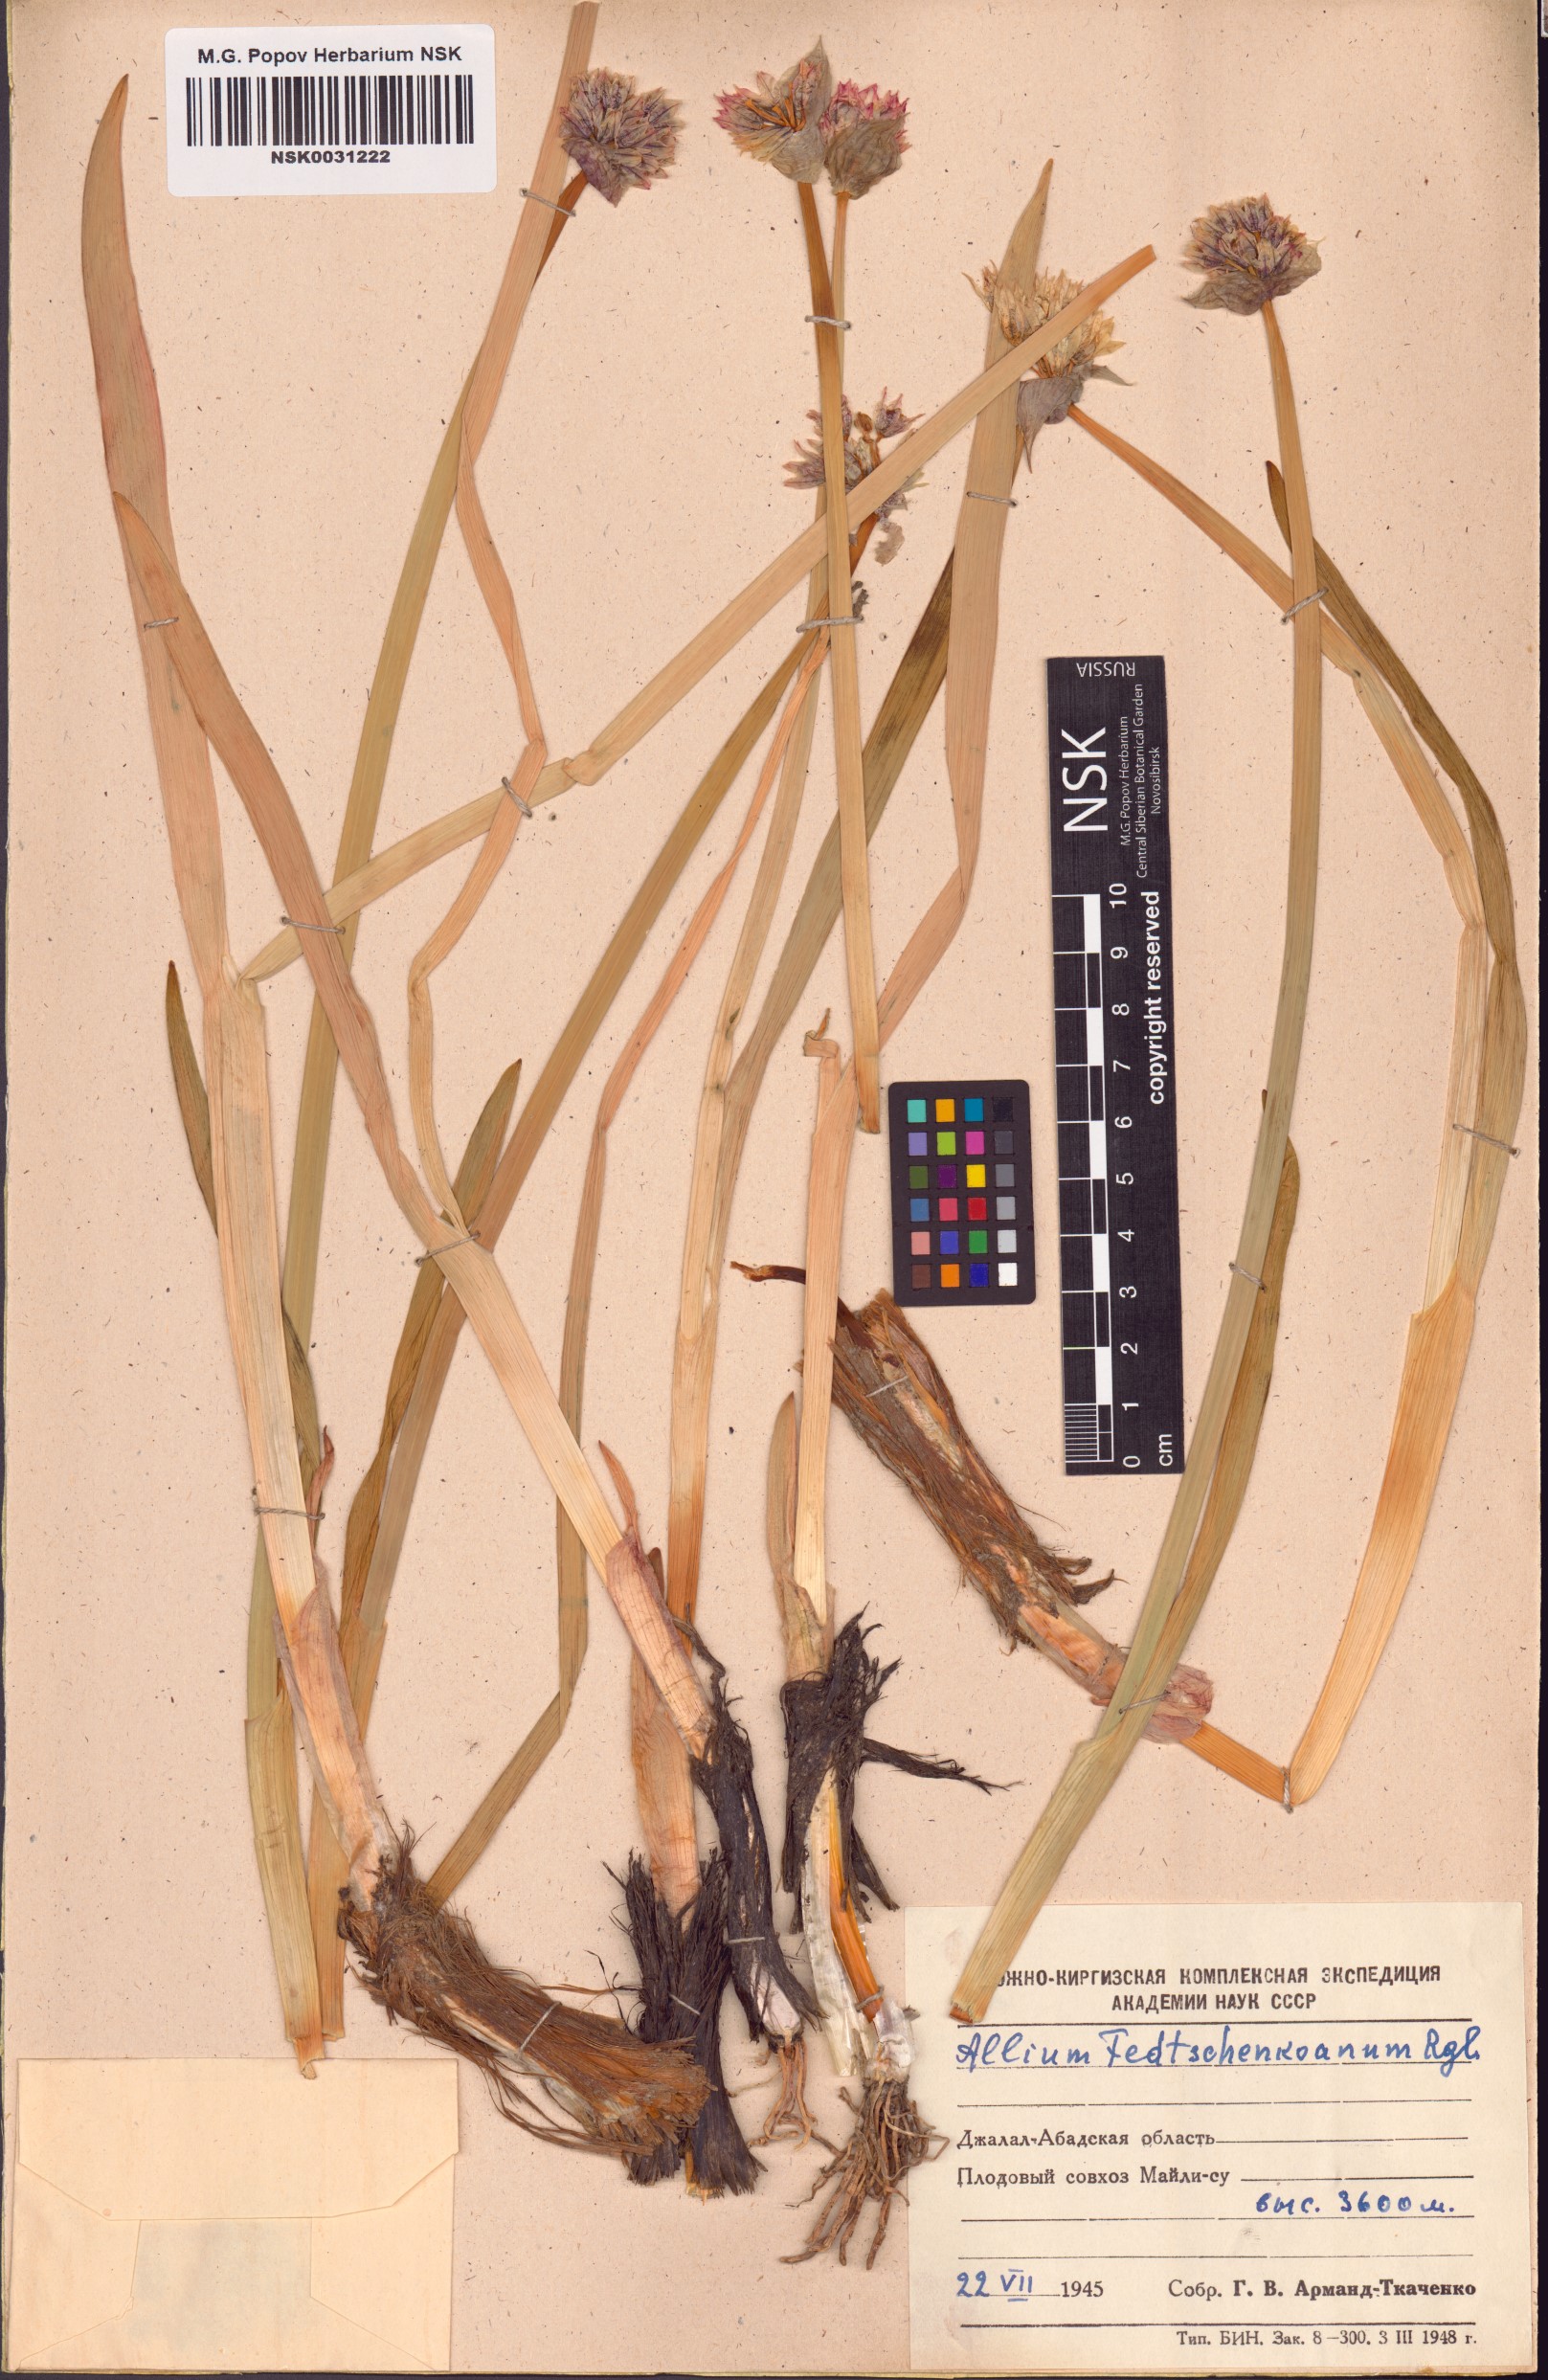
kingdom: Plantae
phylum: Tracheophyta
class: Liliopsida
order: Asparagales
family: Amaryllidaceae
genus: Allium
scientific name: Allium atrosanguineum
